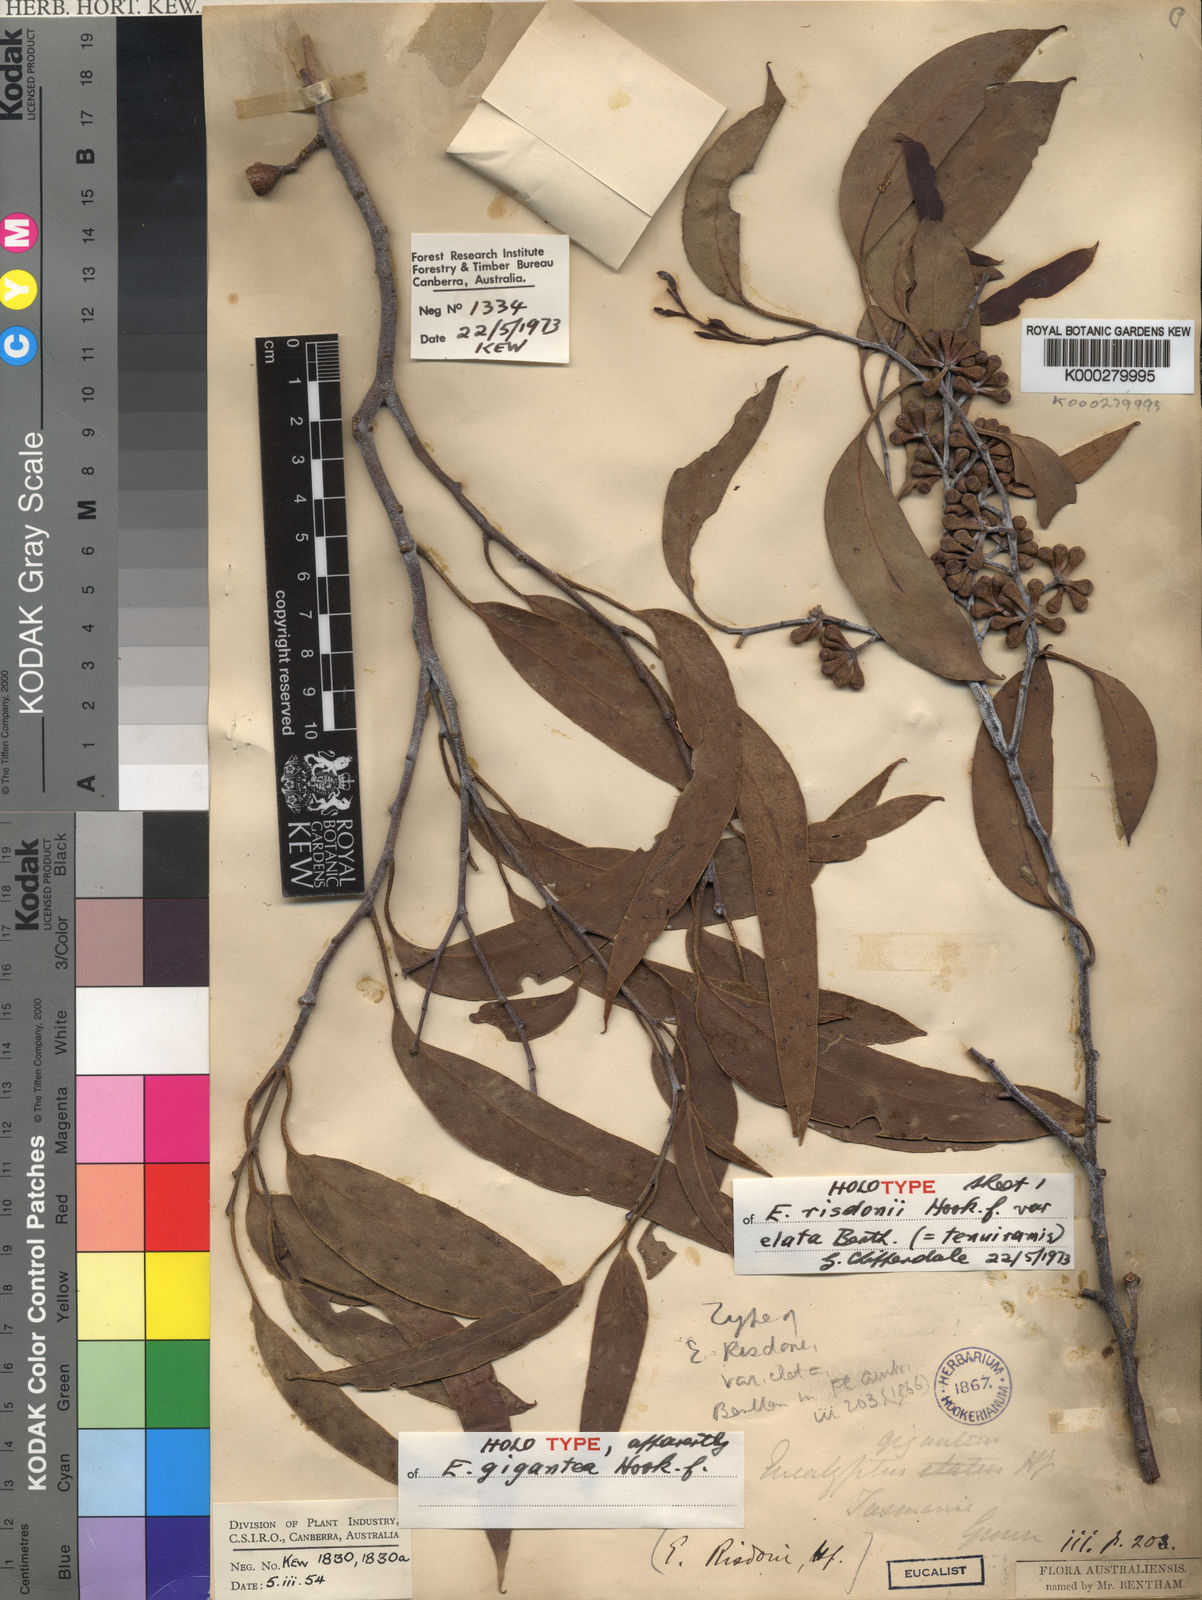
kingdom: Plantae
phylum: Tracheophyta
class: Magnoliopsida
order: Myrtales
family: Myrtaceae
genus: Eucalyptus
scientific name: Eucalyptus tenuiramis
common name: Silver peppermint
